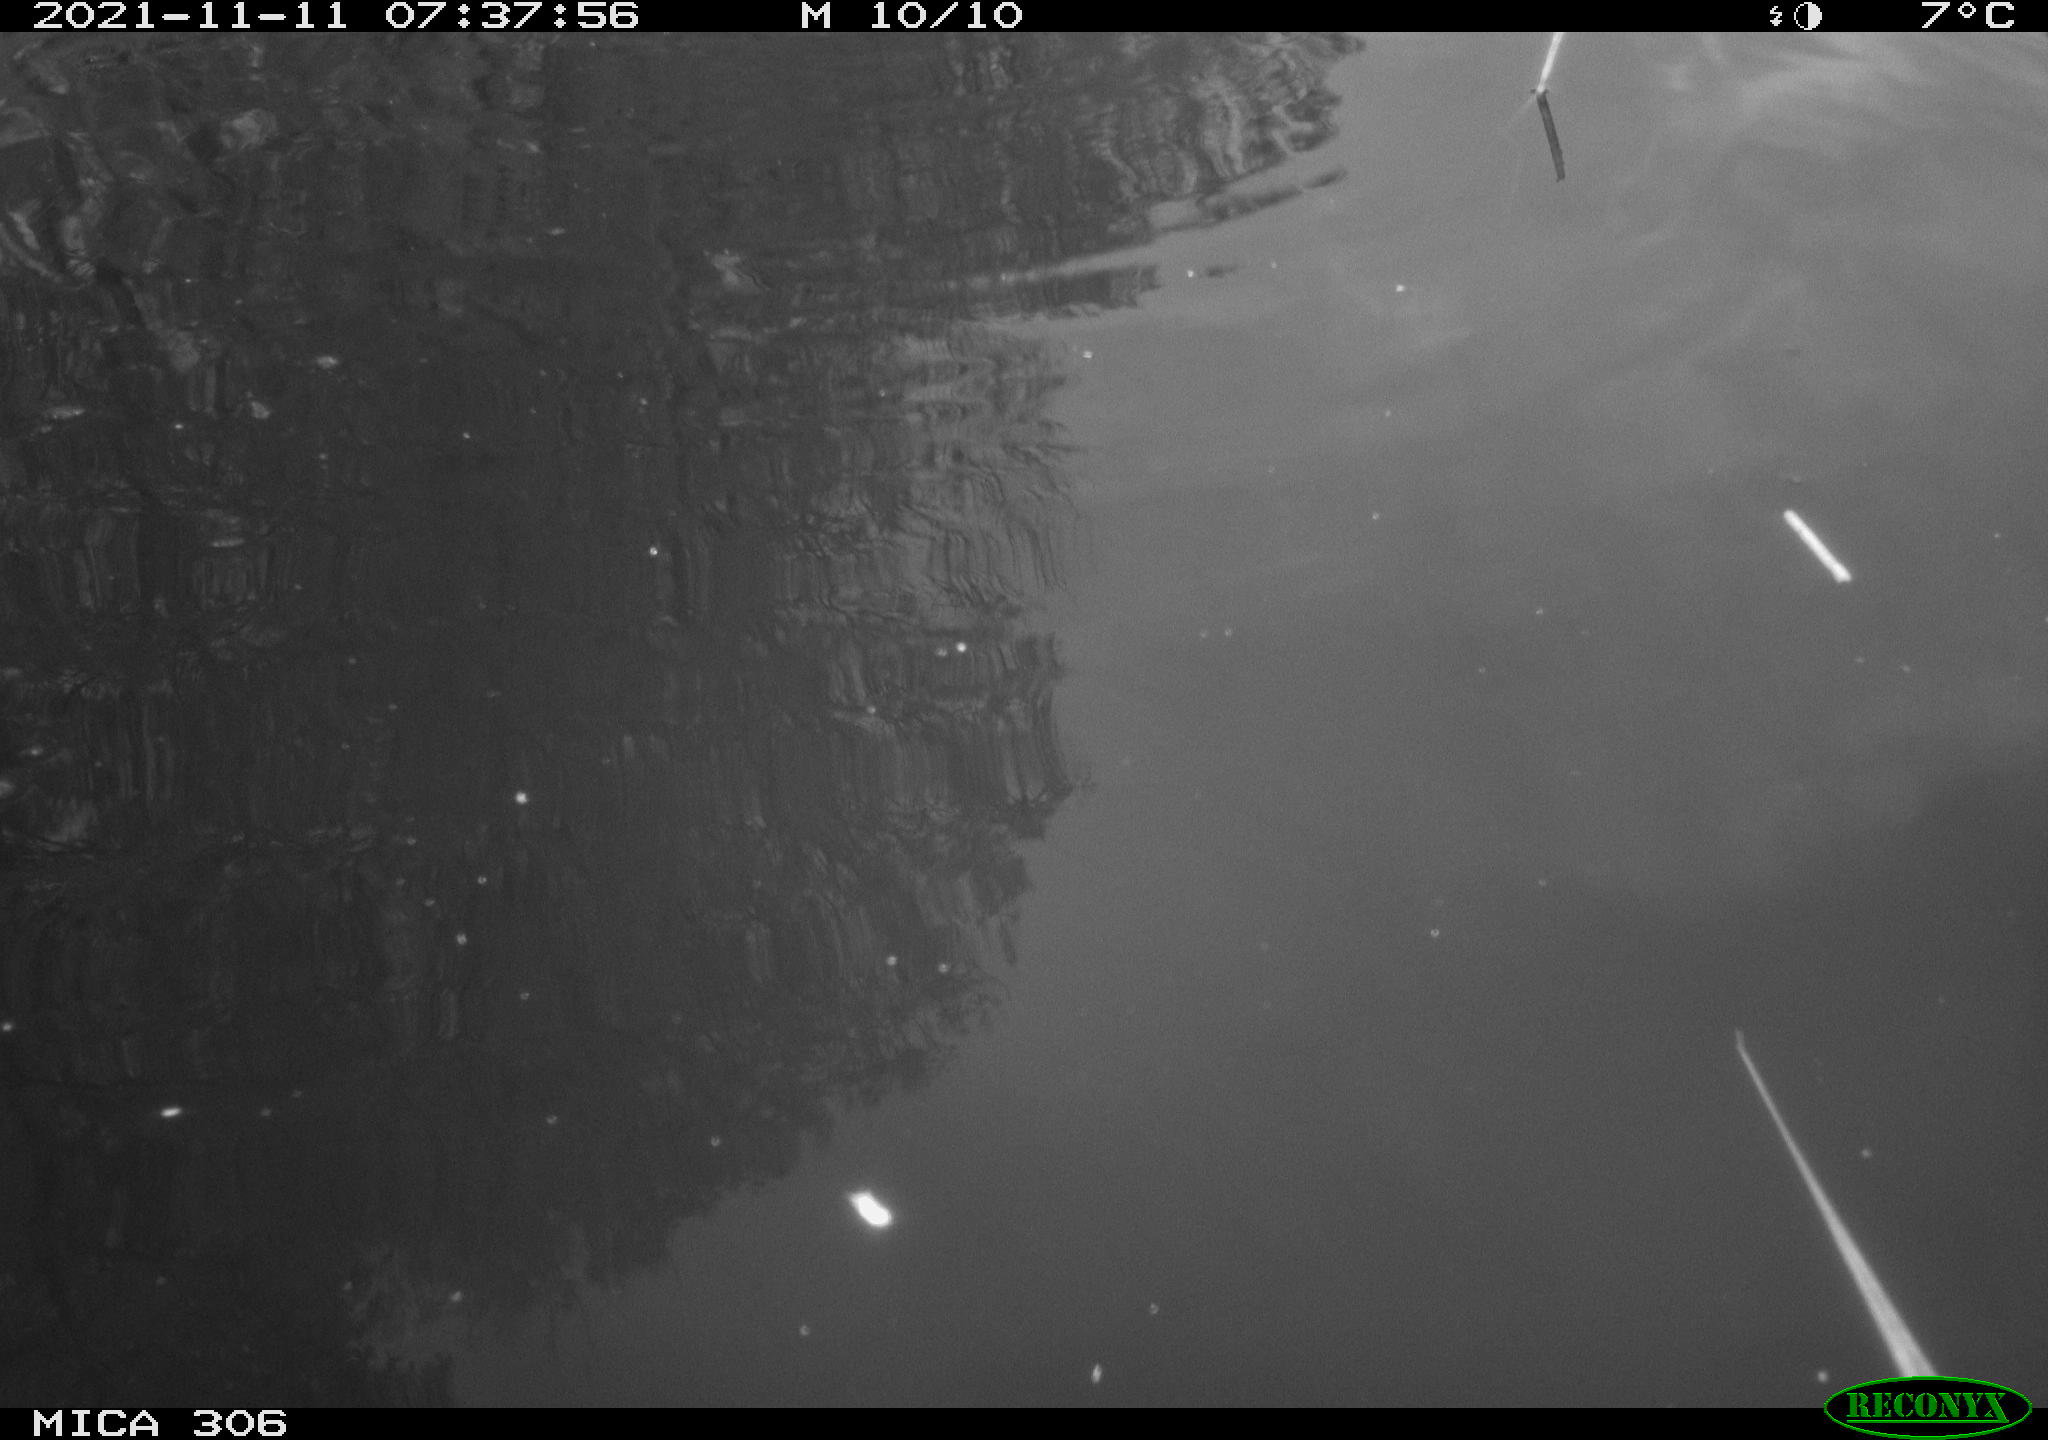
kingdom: Animalia
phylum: Chordata
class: Aves
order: Gruiformes
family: Rallidae
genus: Fulica
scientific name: Fulica atra
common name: Eurasian coot
